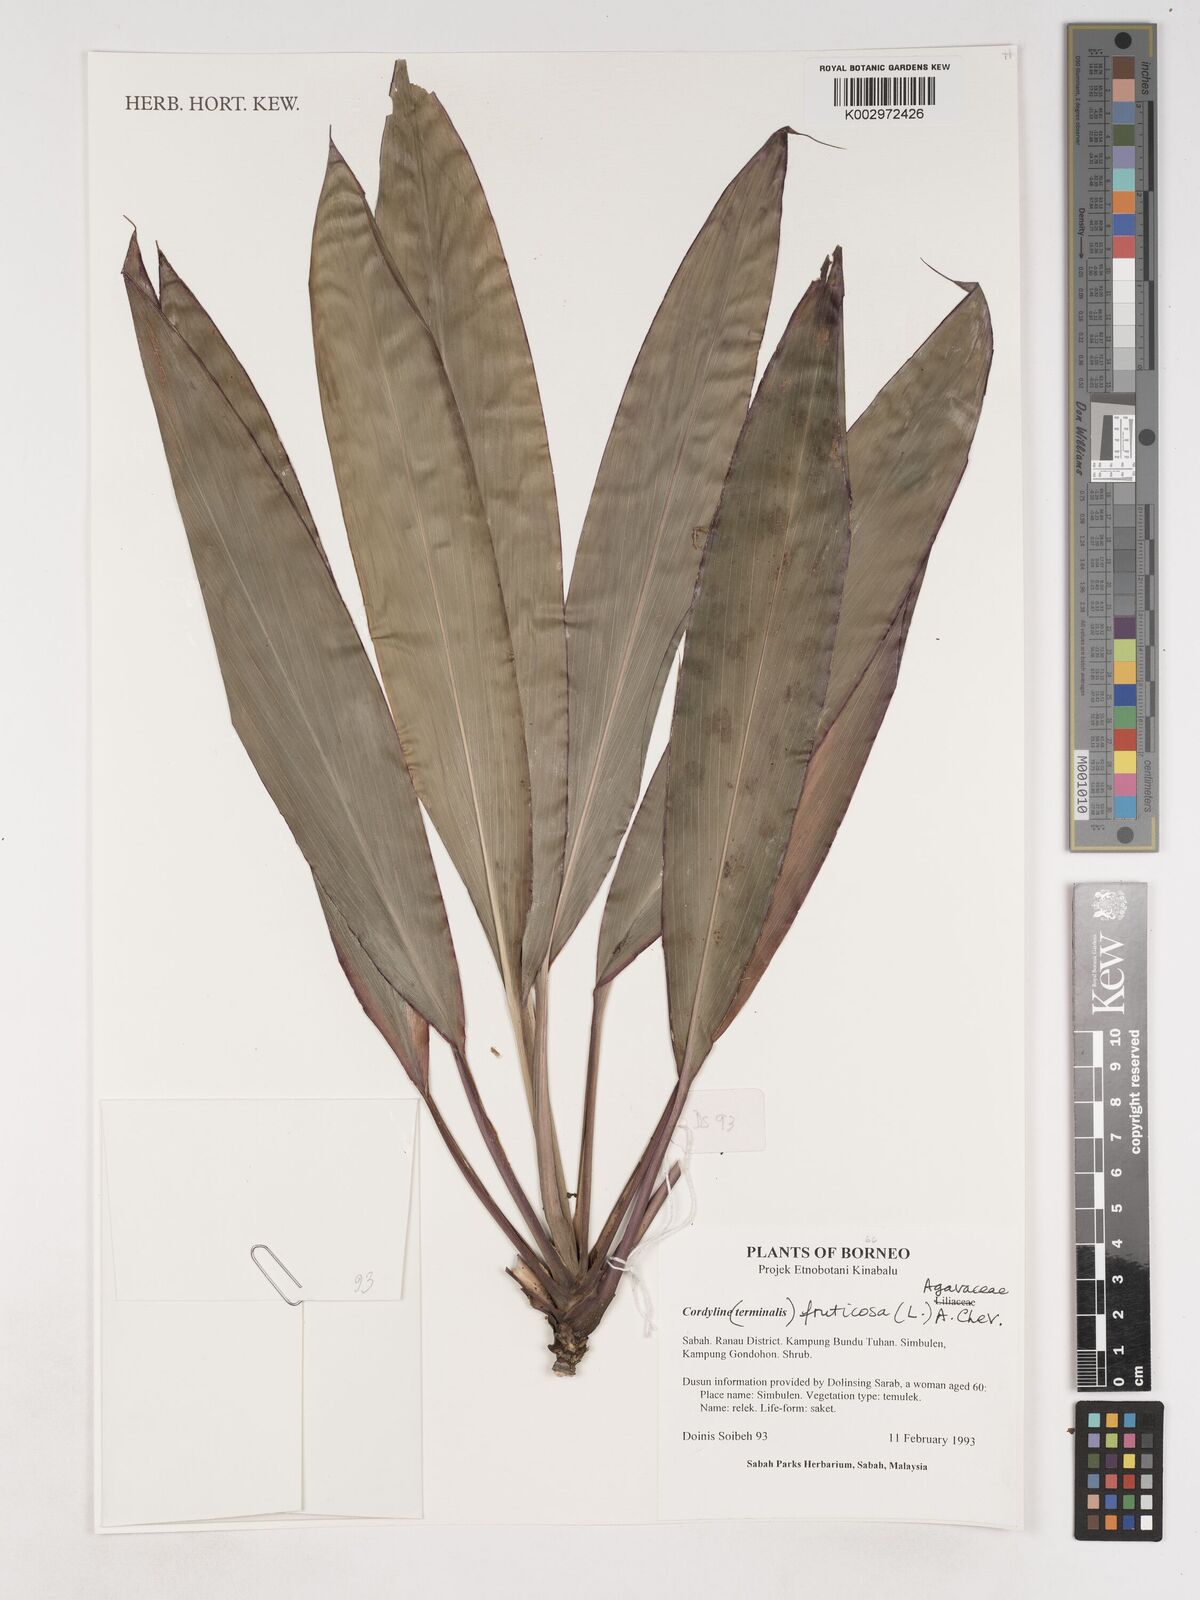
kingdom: Plantae
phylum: Tracheophyta
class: Liliopsida
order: Asparagales
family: Asparagaceae
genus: Cordyline
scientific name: Cordyline fruticosa
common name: Good-luck-plant
